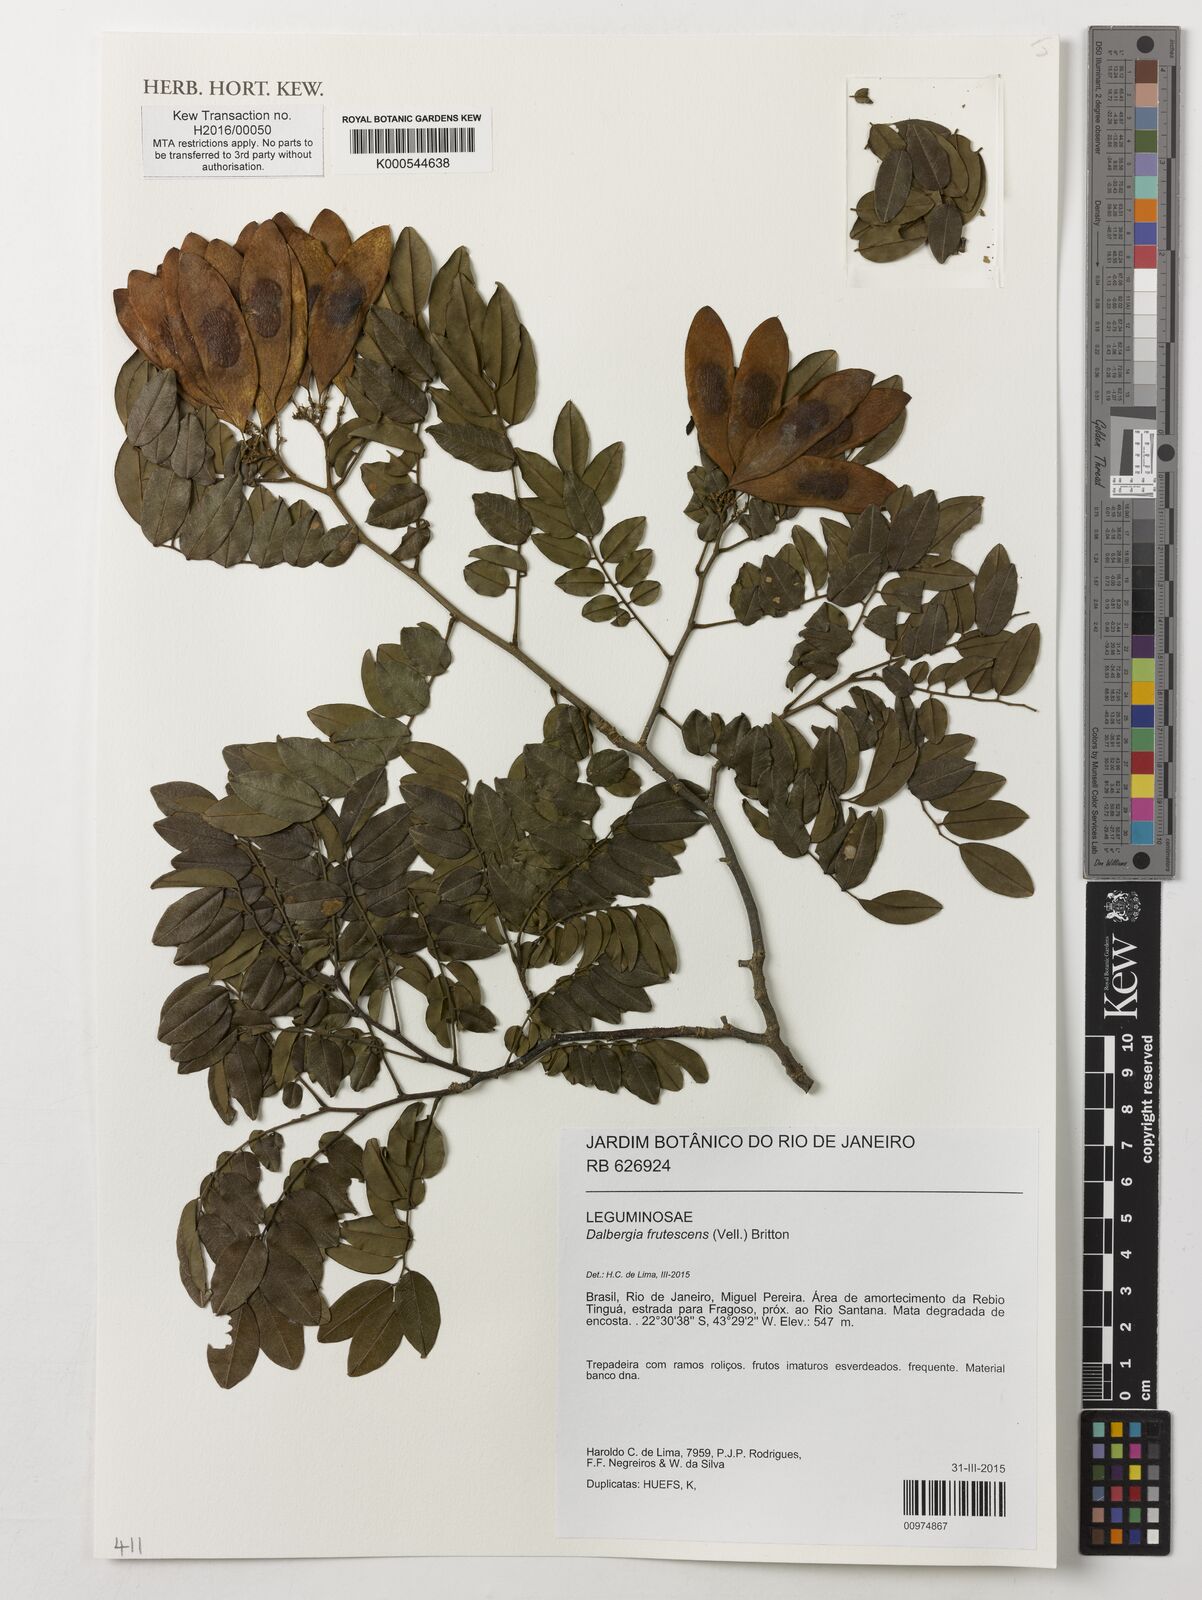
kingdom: Plantae
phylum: Tracheophyta
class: Magnoliopsida
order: Fabales
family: Fabaceae
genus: Dalbergia
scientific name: Dalbergia frutescens
